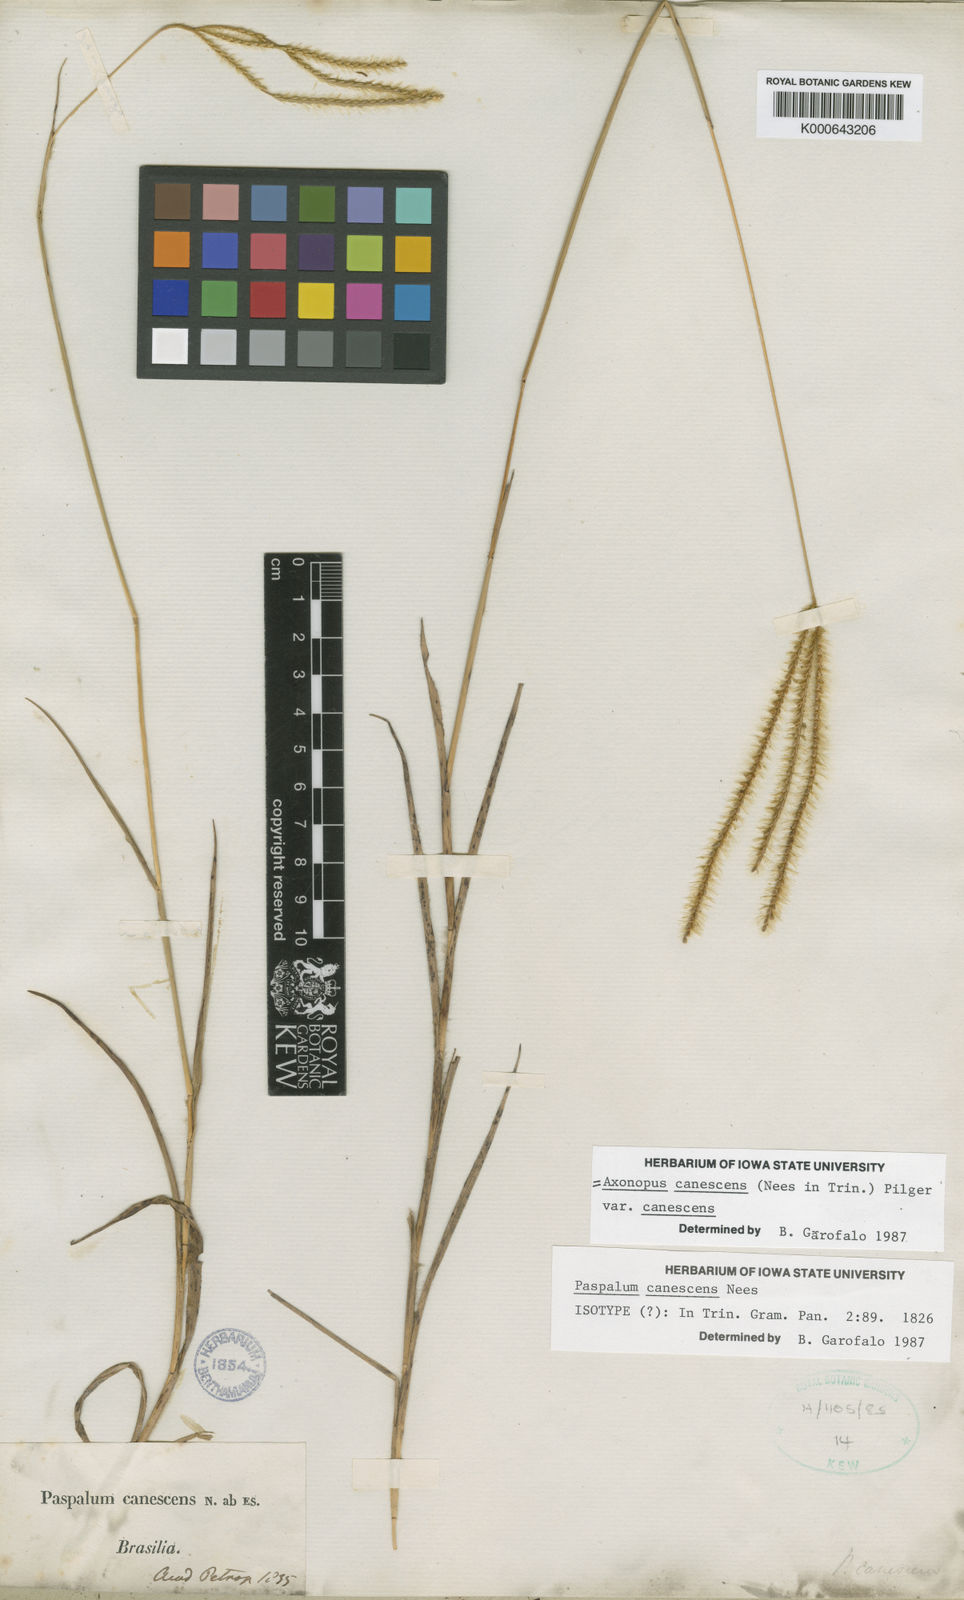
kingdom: Plantae
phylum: Tracheophyta
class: Liliopsida
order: Poales
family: Poaceae
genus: Axonopus
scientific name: Axonopus aureus
